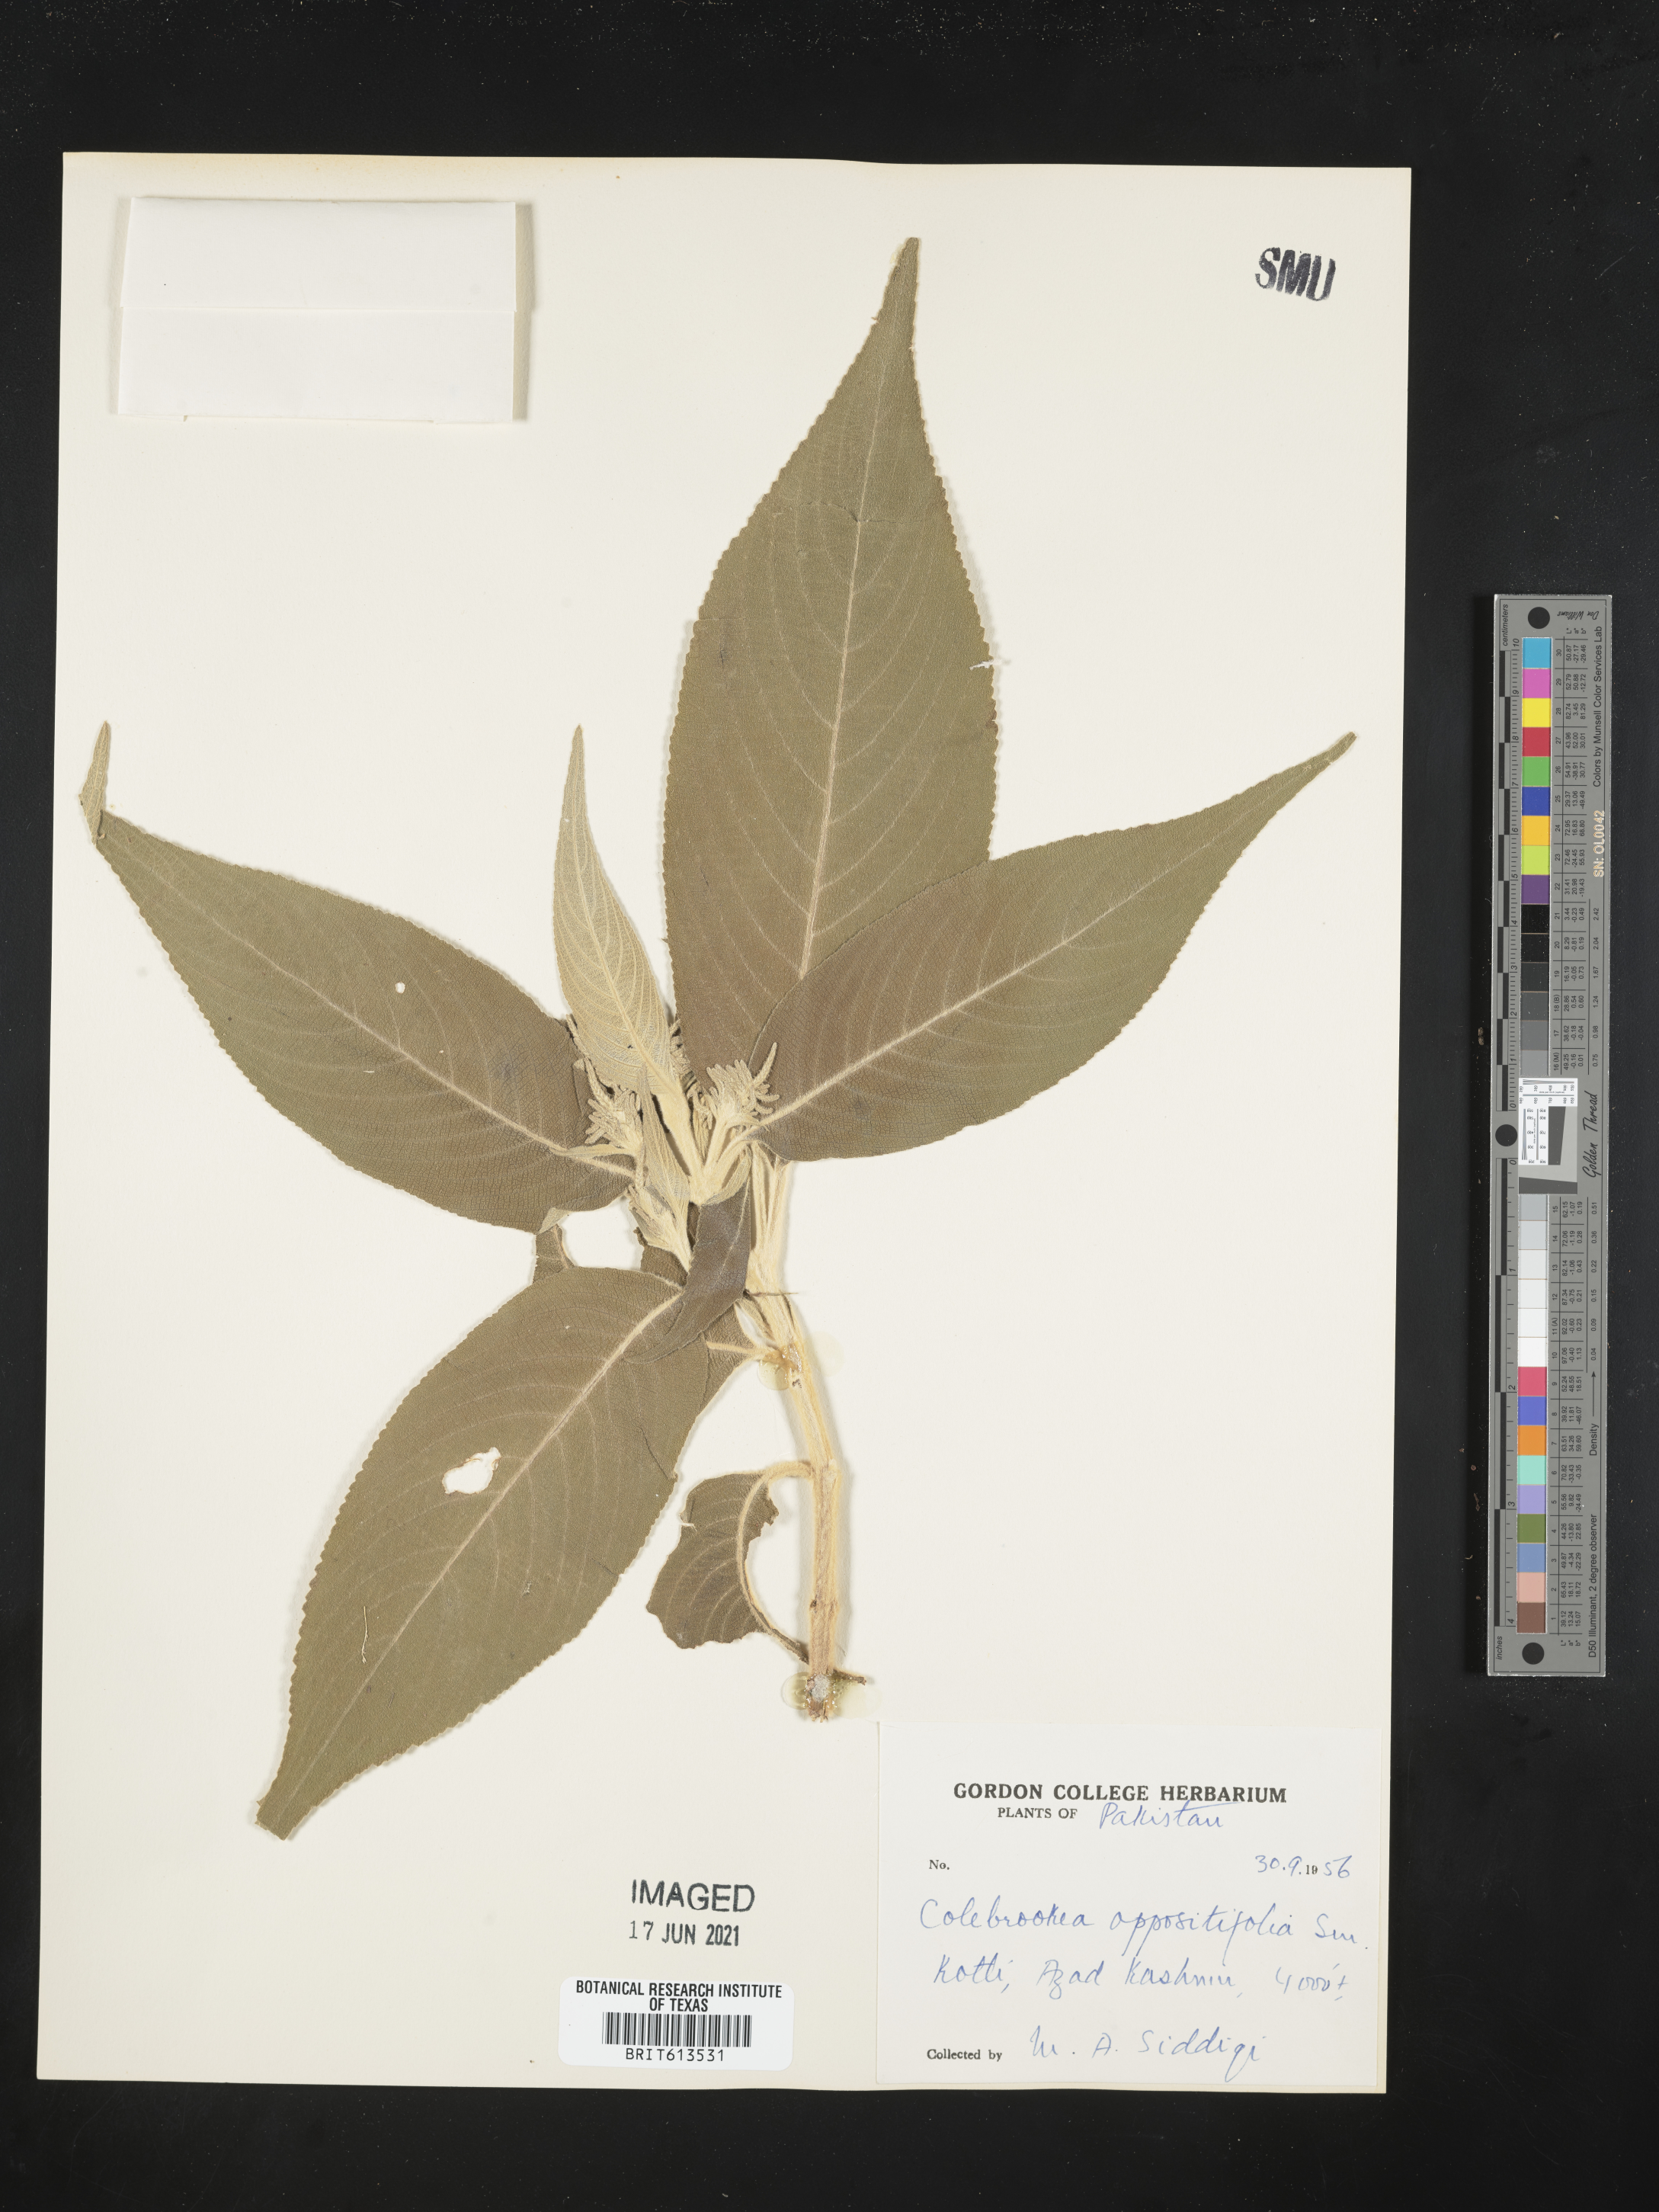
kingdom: Plantae
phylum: Tracheophyta
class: Magnoliopsida
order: Lamiales
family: Lamiaceae
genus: Colebrookea
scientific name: Colebrookea oppositifolia
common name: Indian squirrel tail
